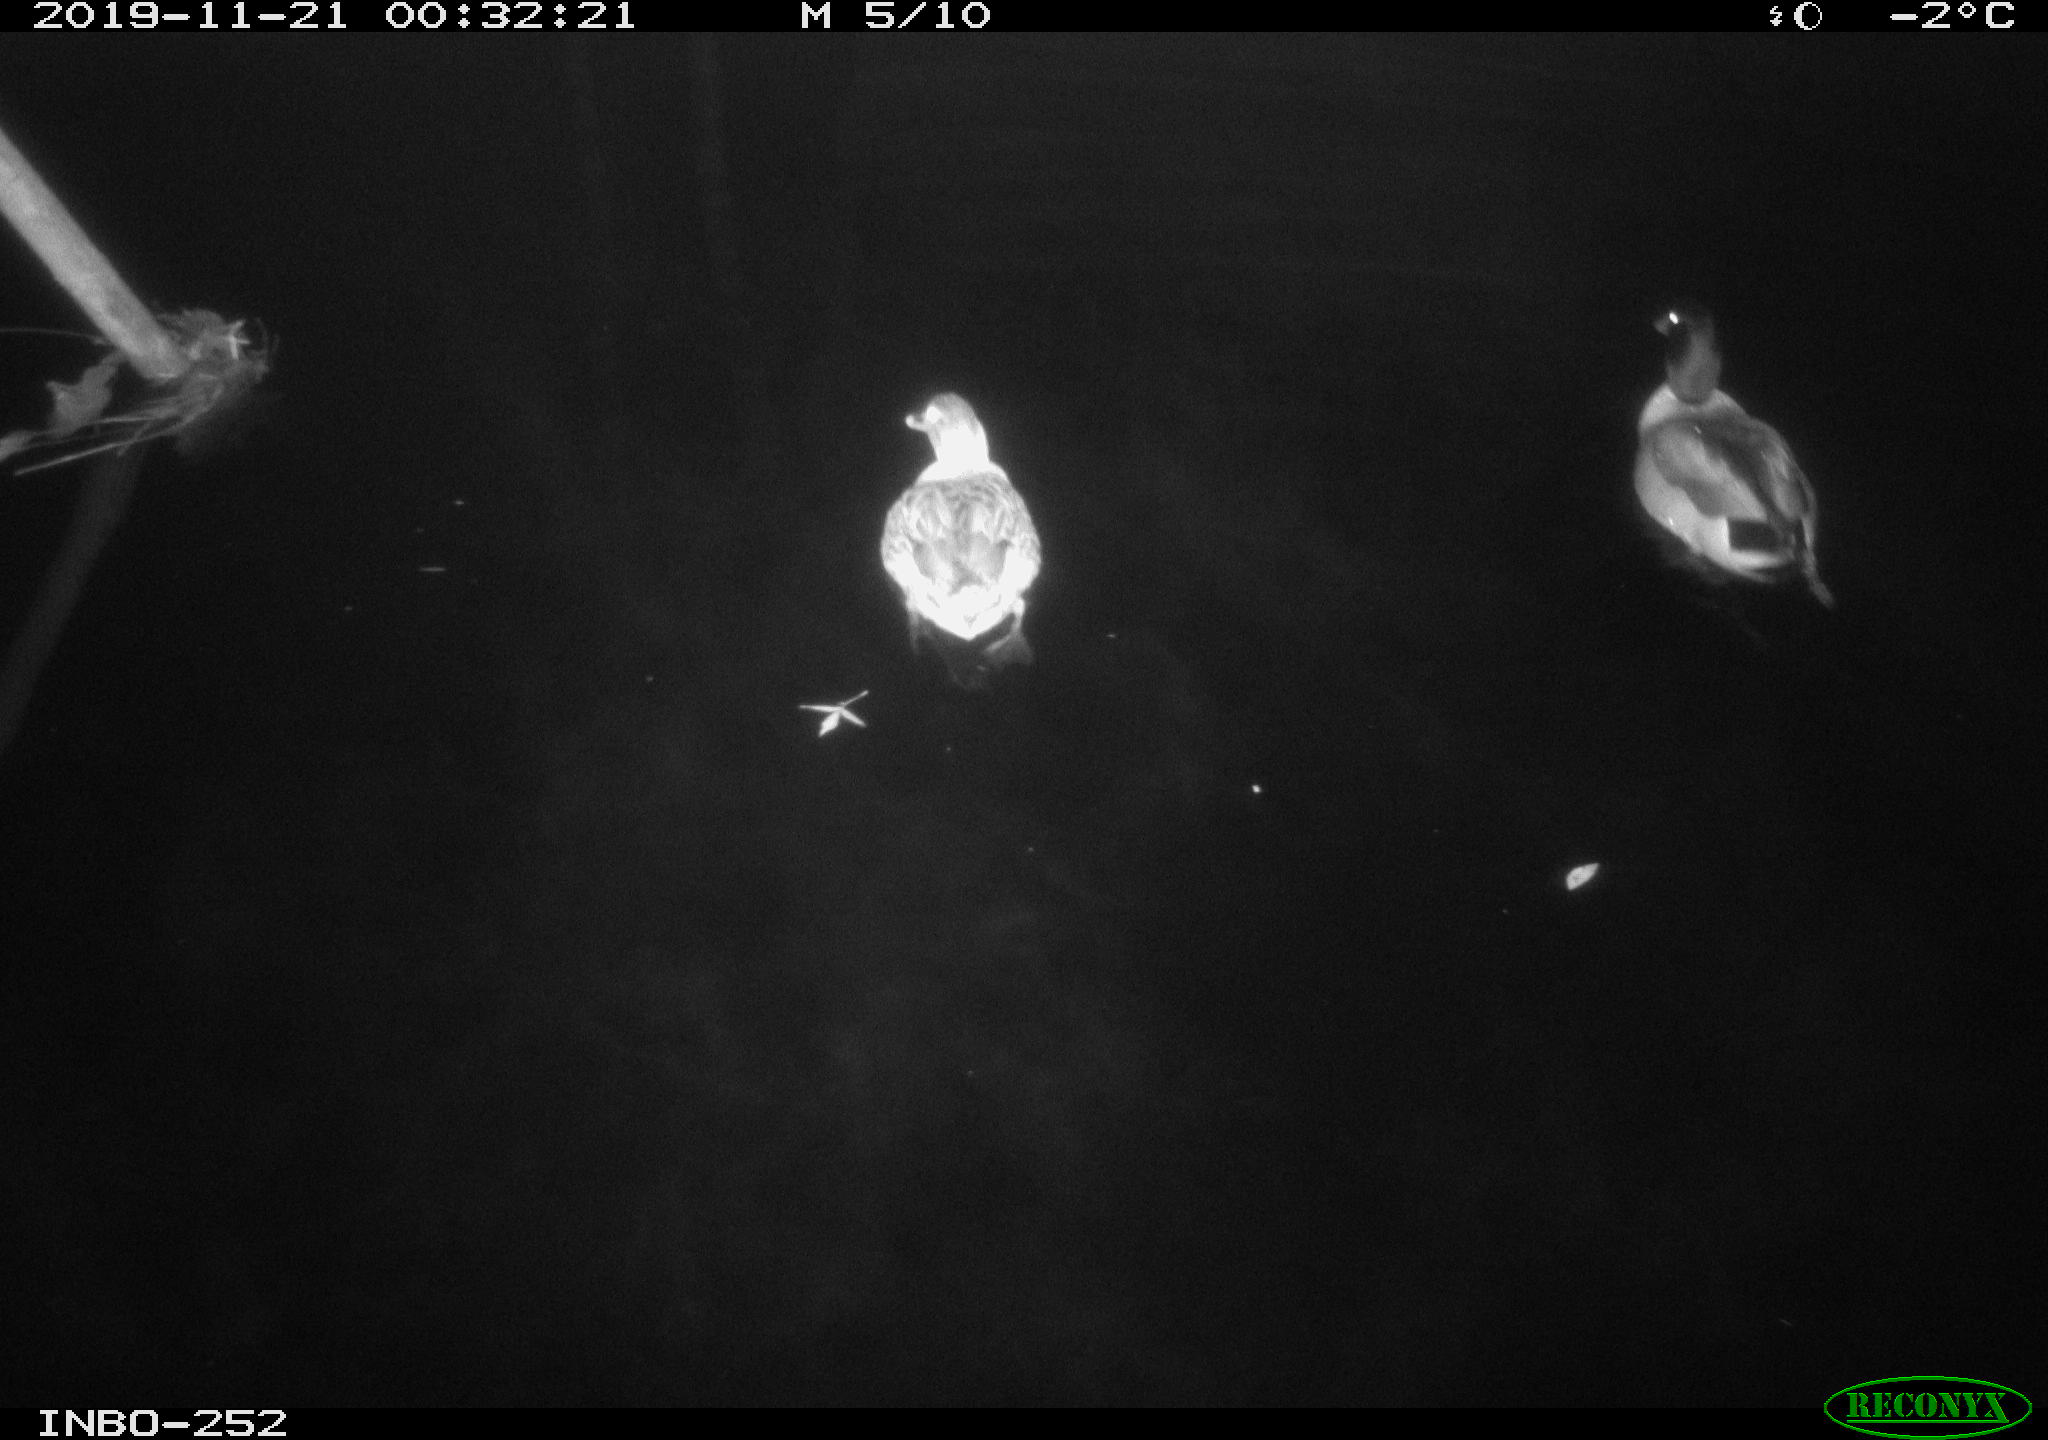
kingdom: Animalia
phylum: Chordata
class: Aves
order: Anseriformes
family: Anatidae
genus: Anas
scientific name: Anas platyrhynchos
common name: Mallard
